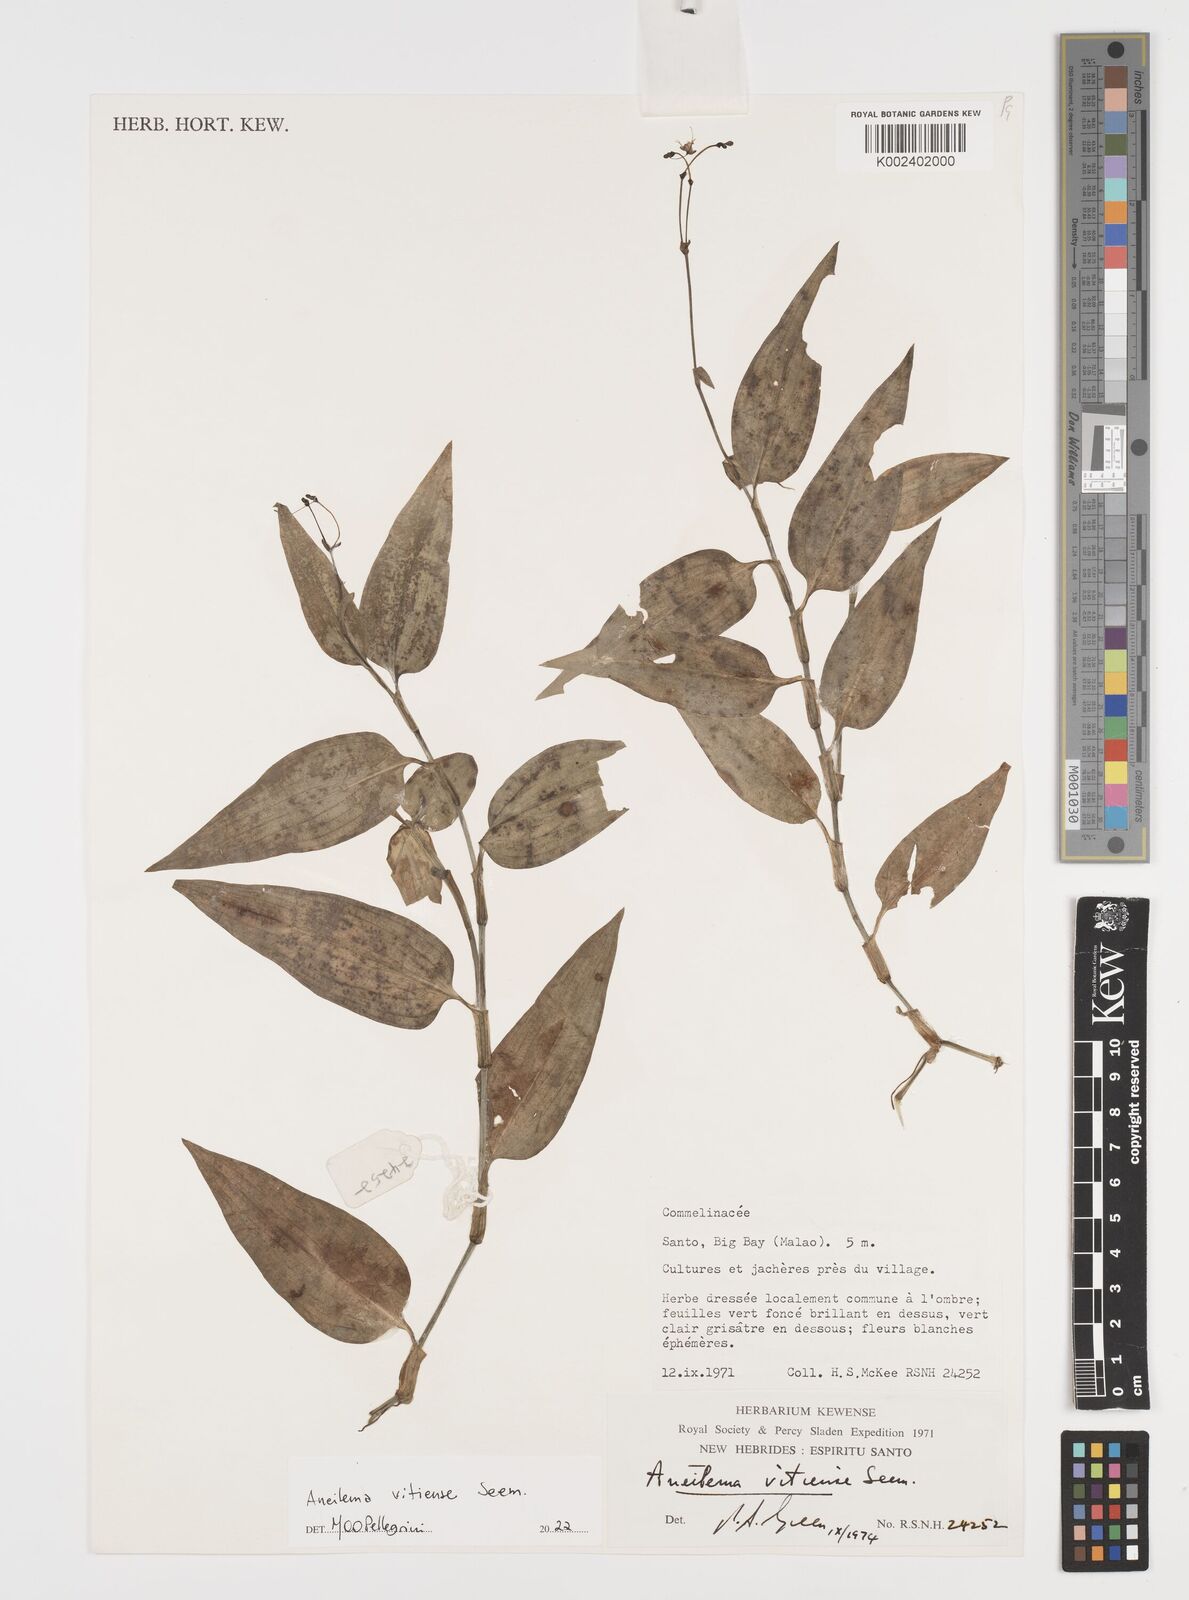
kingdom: Plantae
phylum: Tracheophyta
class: Liliopsida
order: Commelinales
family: Commelinaceae
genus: Rhopalephora
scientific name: Rhopalephora vitiensis
